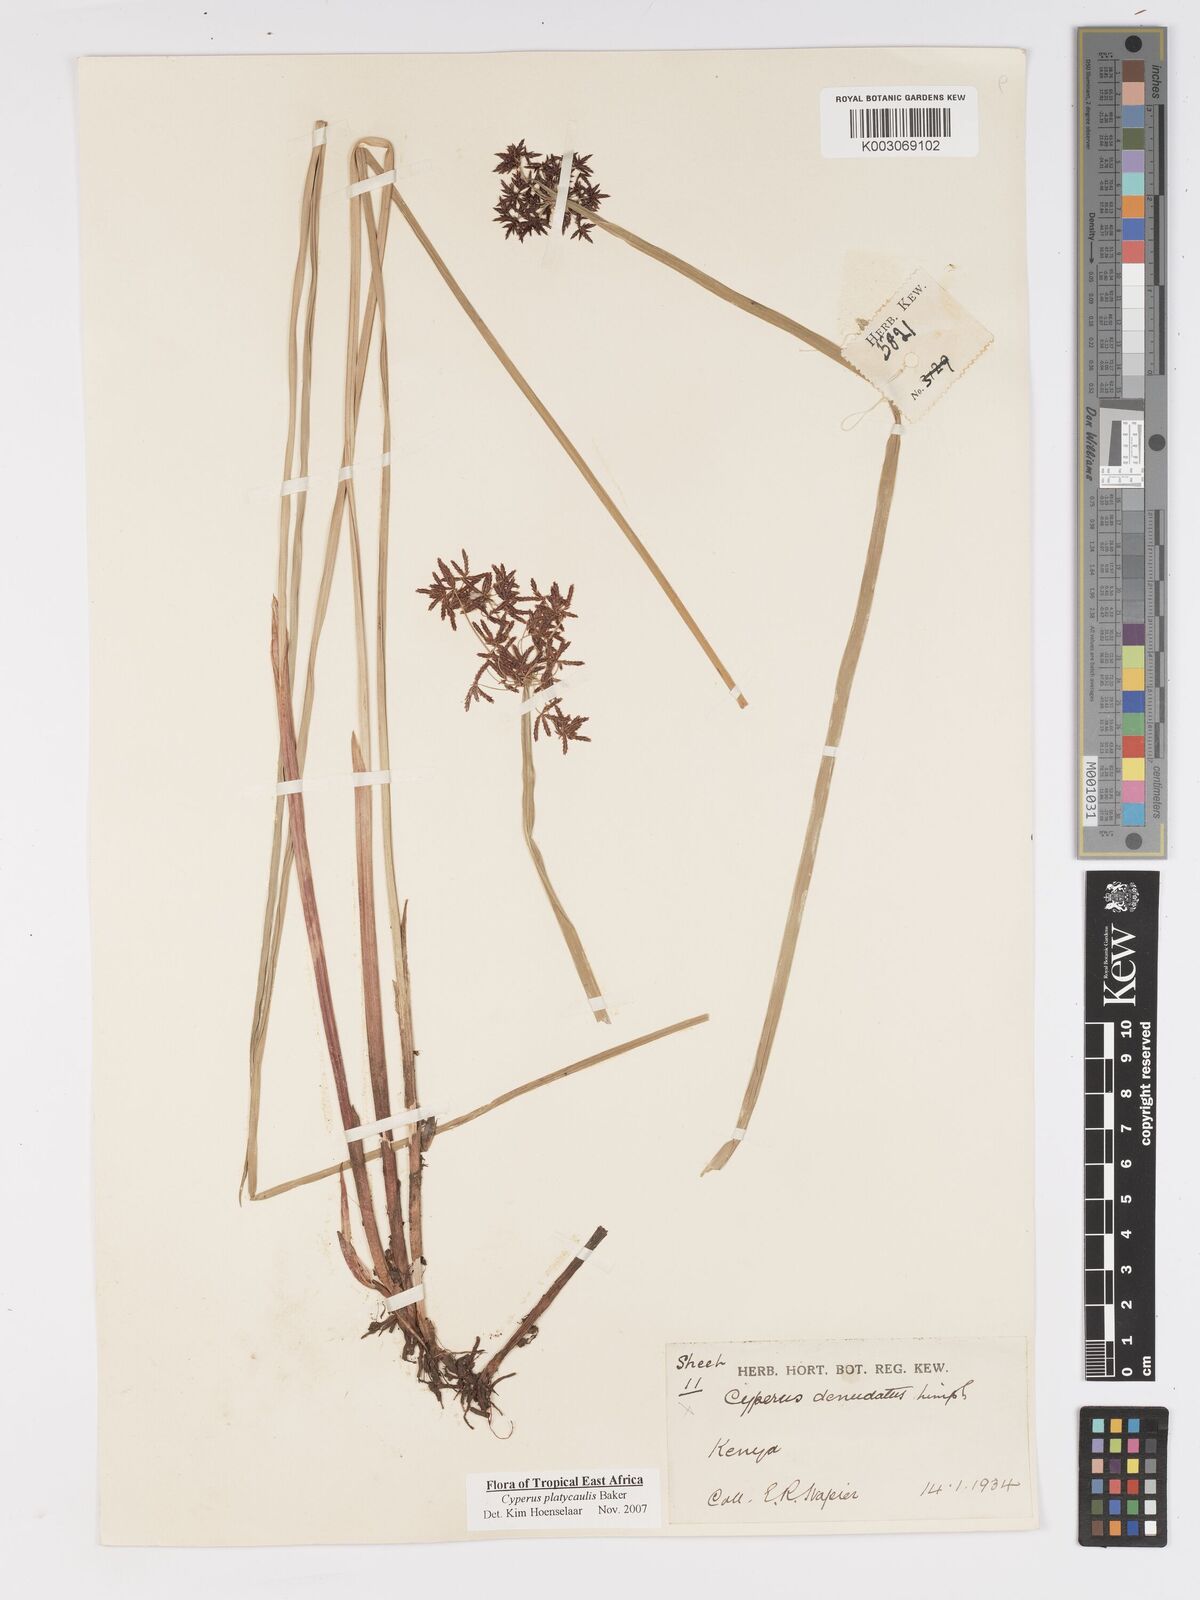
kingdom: Plantae
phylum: Tracheophyta
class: Liliopsida
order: Poales
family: Cyperaceae
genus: Cyperus
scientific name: Cyperus platycaulis
